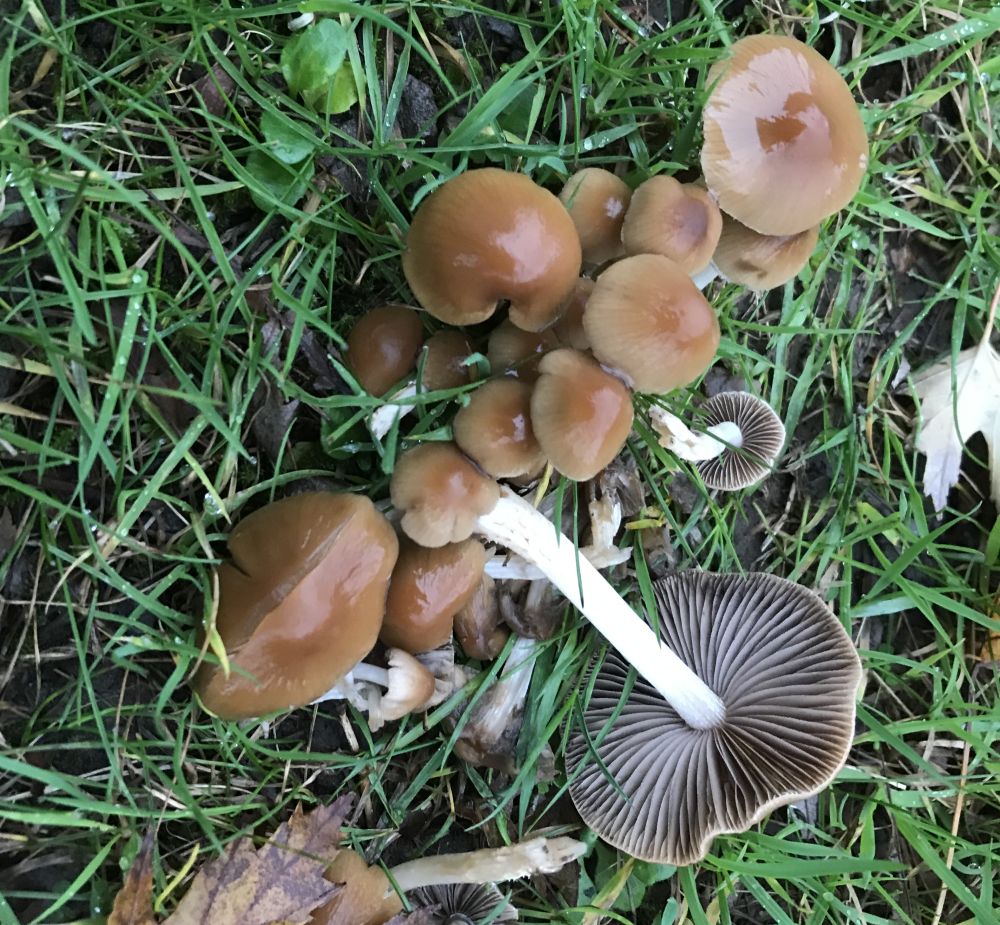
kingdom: Fungi
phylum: Basidiomycota
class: Agaricomycetes
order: Agaricales
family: Psathyrellaceae
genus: Psathyrella
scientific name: Psathyrella piluliformis
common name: lysstokket mørkhat
